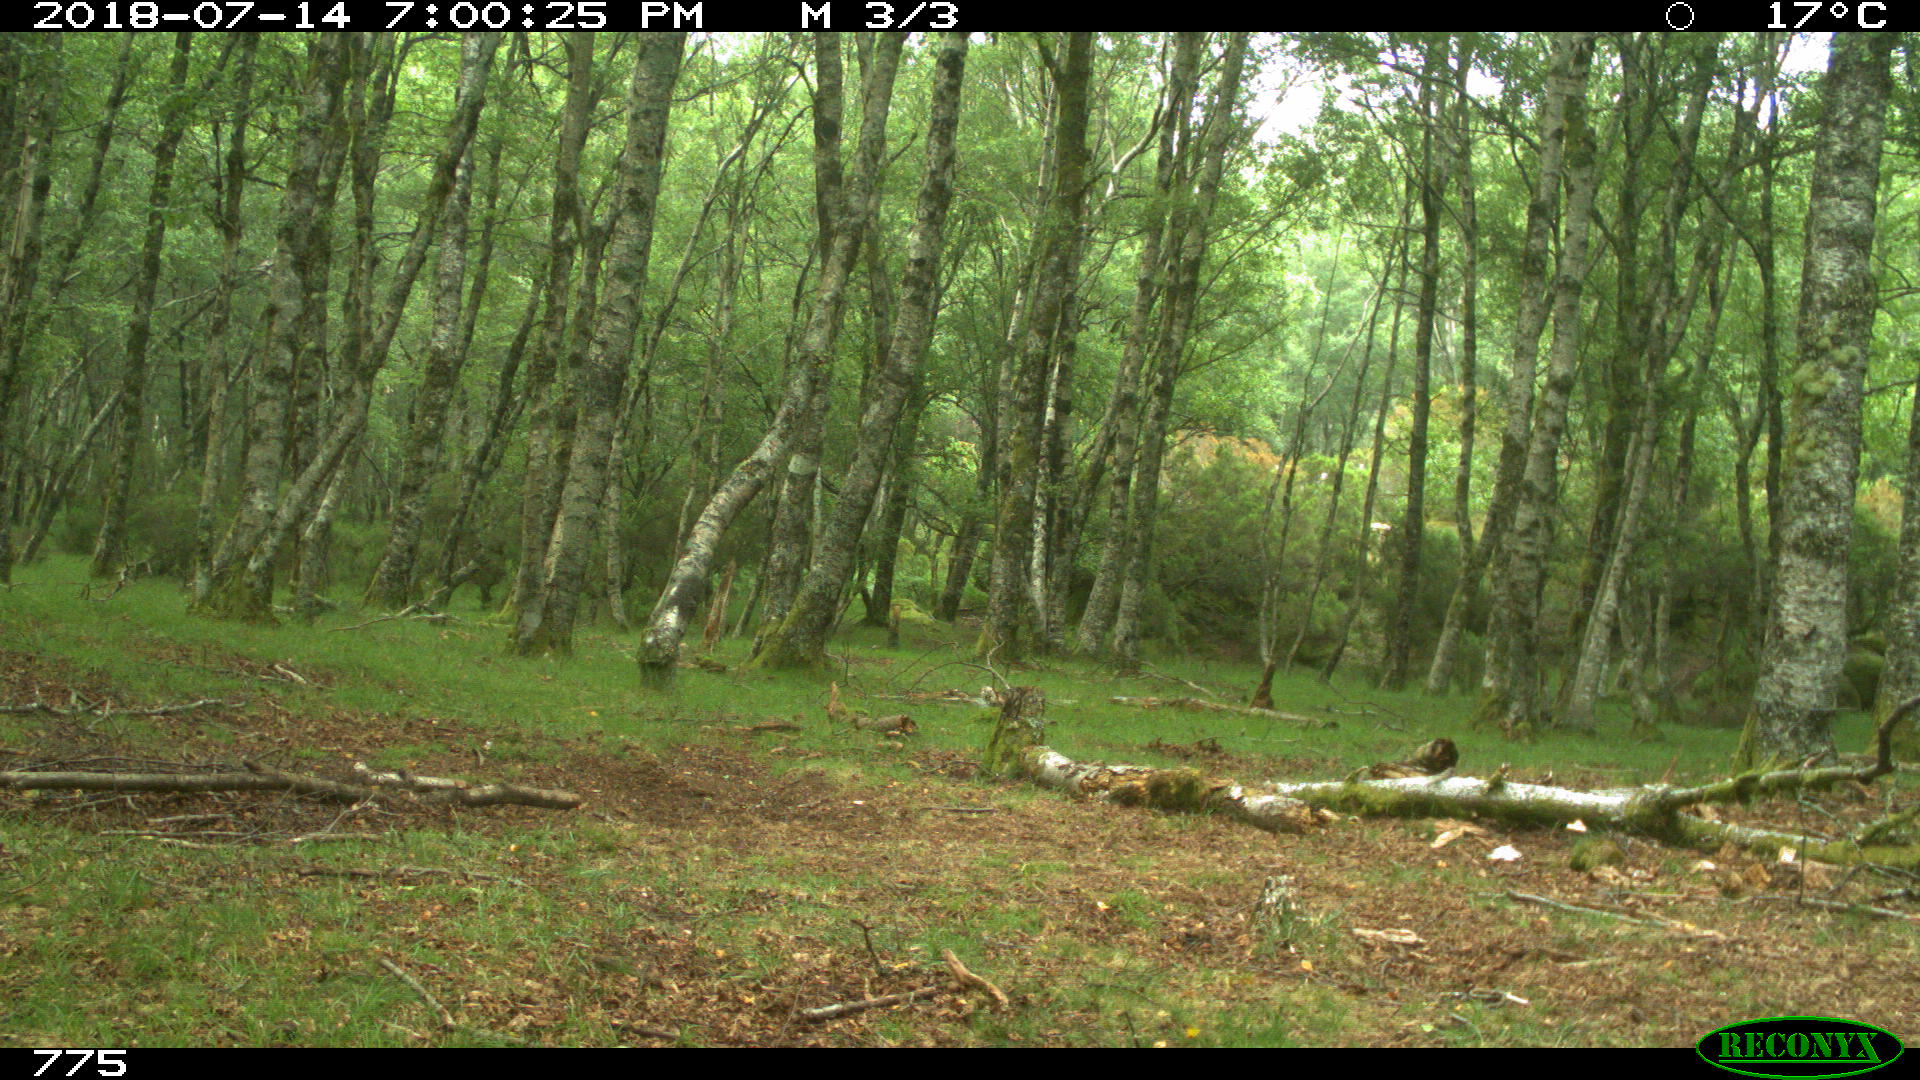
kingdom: Animalia
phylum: Chordata
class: Mammalia
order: Artiodactyla
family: Suidae
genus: Sus
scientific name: Sus scrofa
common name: Wild boar
